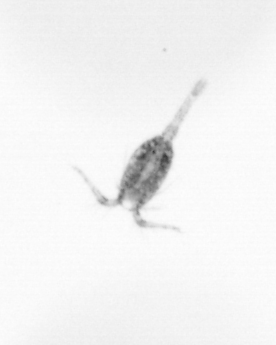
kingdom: Animalia
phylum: Arthropoda
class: Copepoda
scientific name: Copepoda
